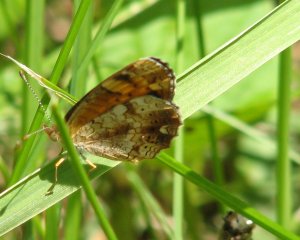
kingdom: Animalia
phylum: Arthropoda
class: Insecta
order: Lepidoptera
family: Nymphalidae
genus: Phyciodes
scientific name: Phyciodes tharos
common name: Pearl Crescent
